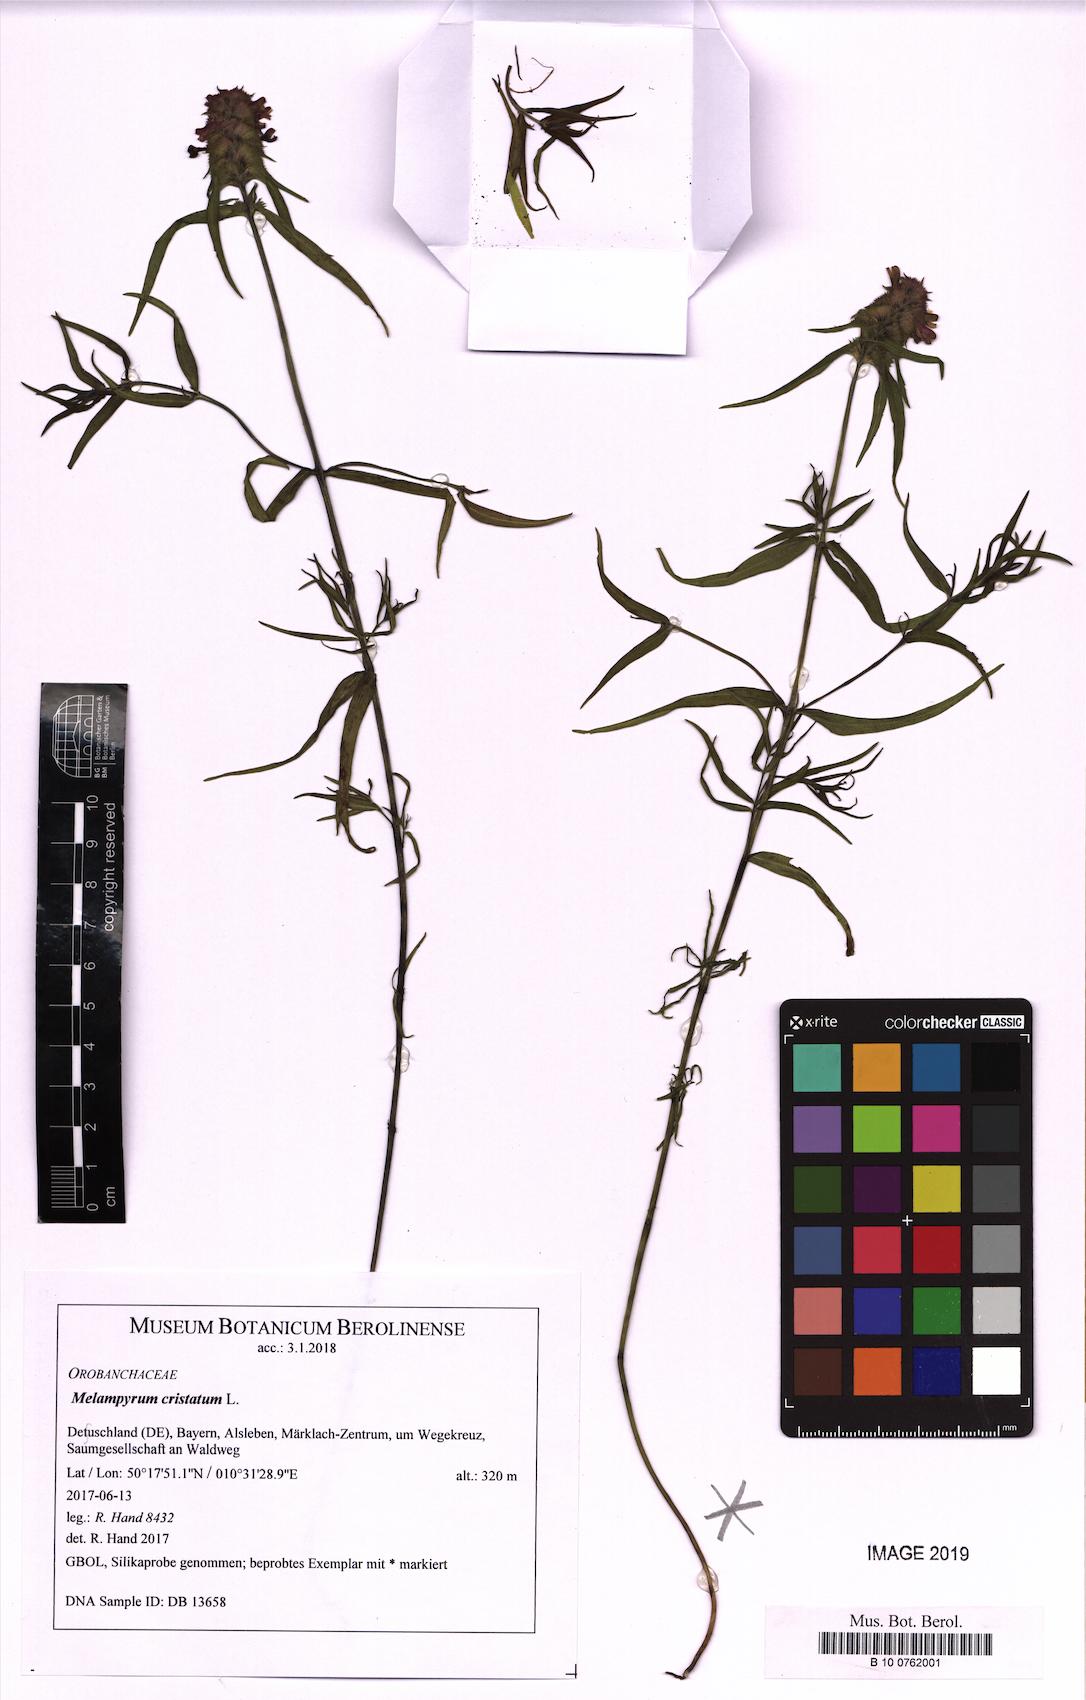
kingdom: Plantae
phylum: Tracheophyta
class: Magnoliopsida
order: Lamiales
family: Orobanchaceae
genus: Melampyrum
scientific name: Melampyrum cristatum
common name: Crested cow-wheat
